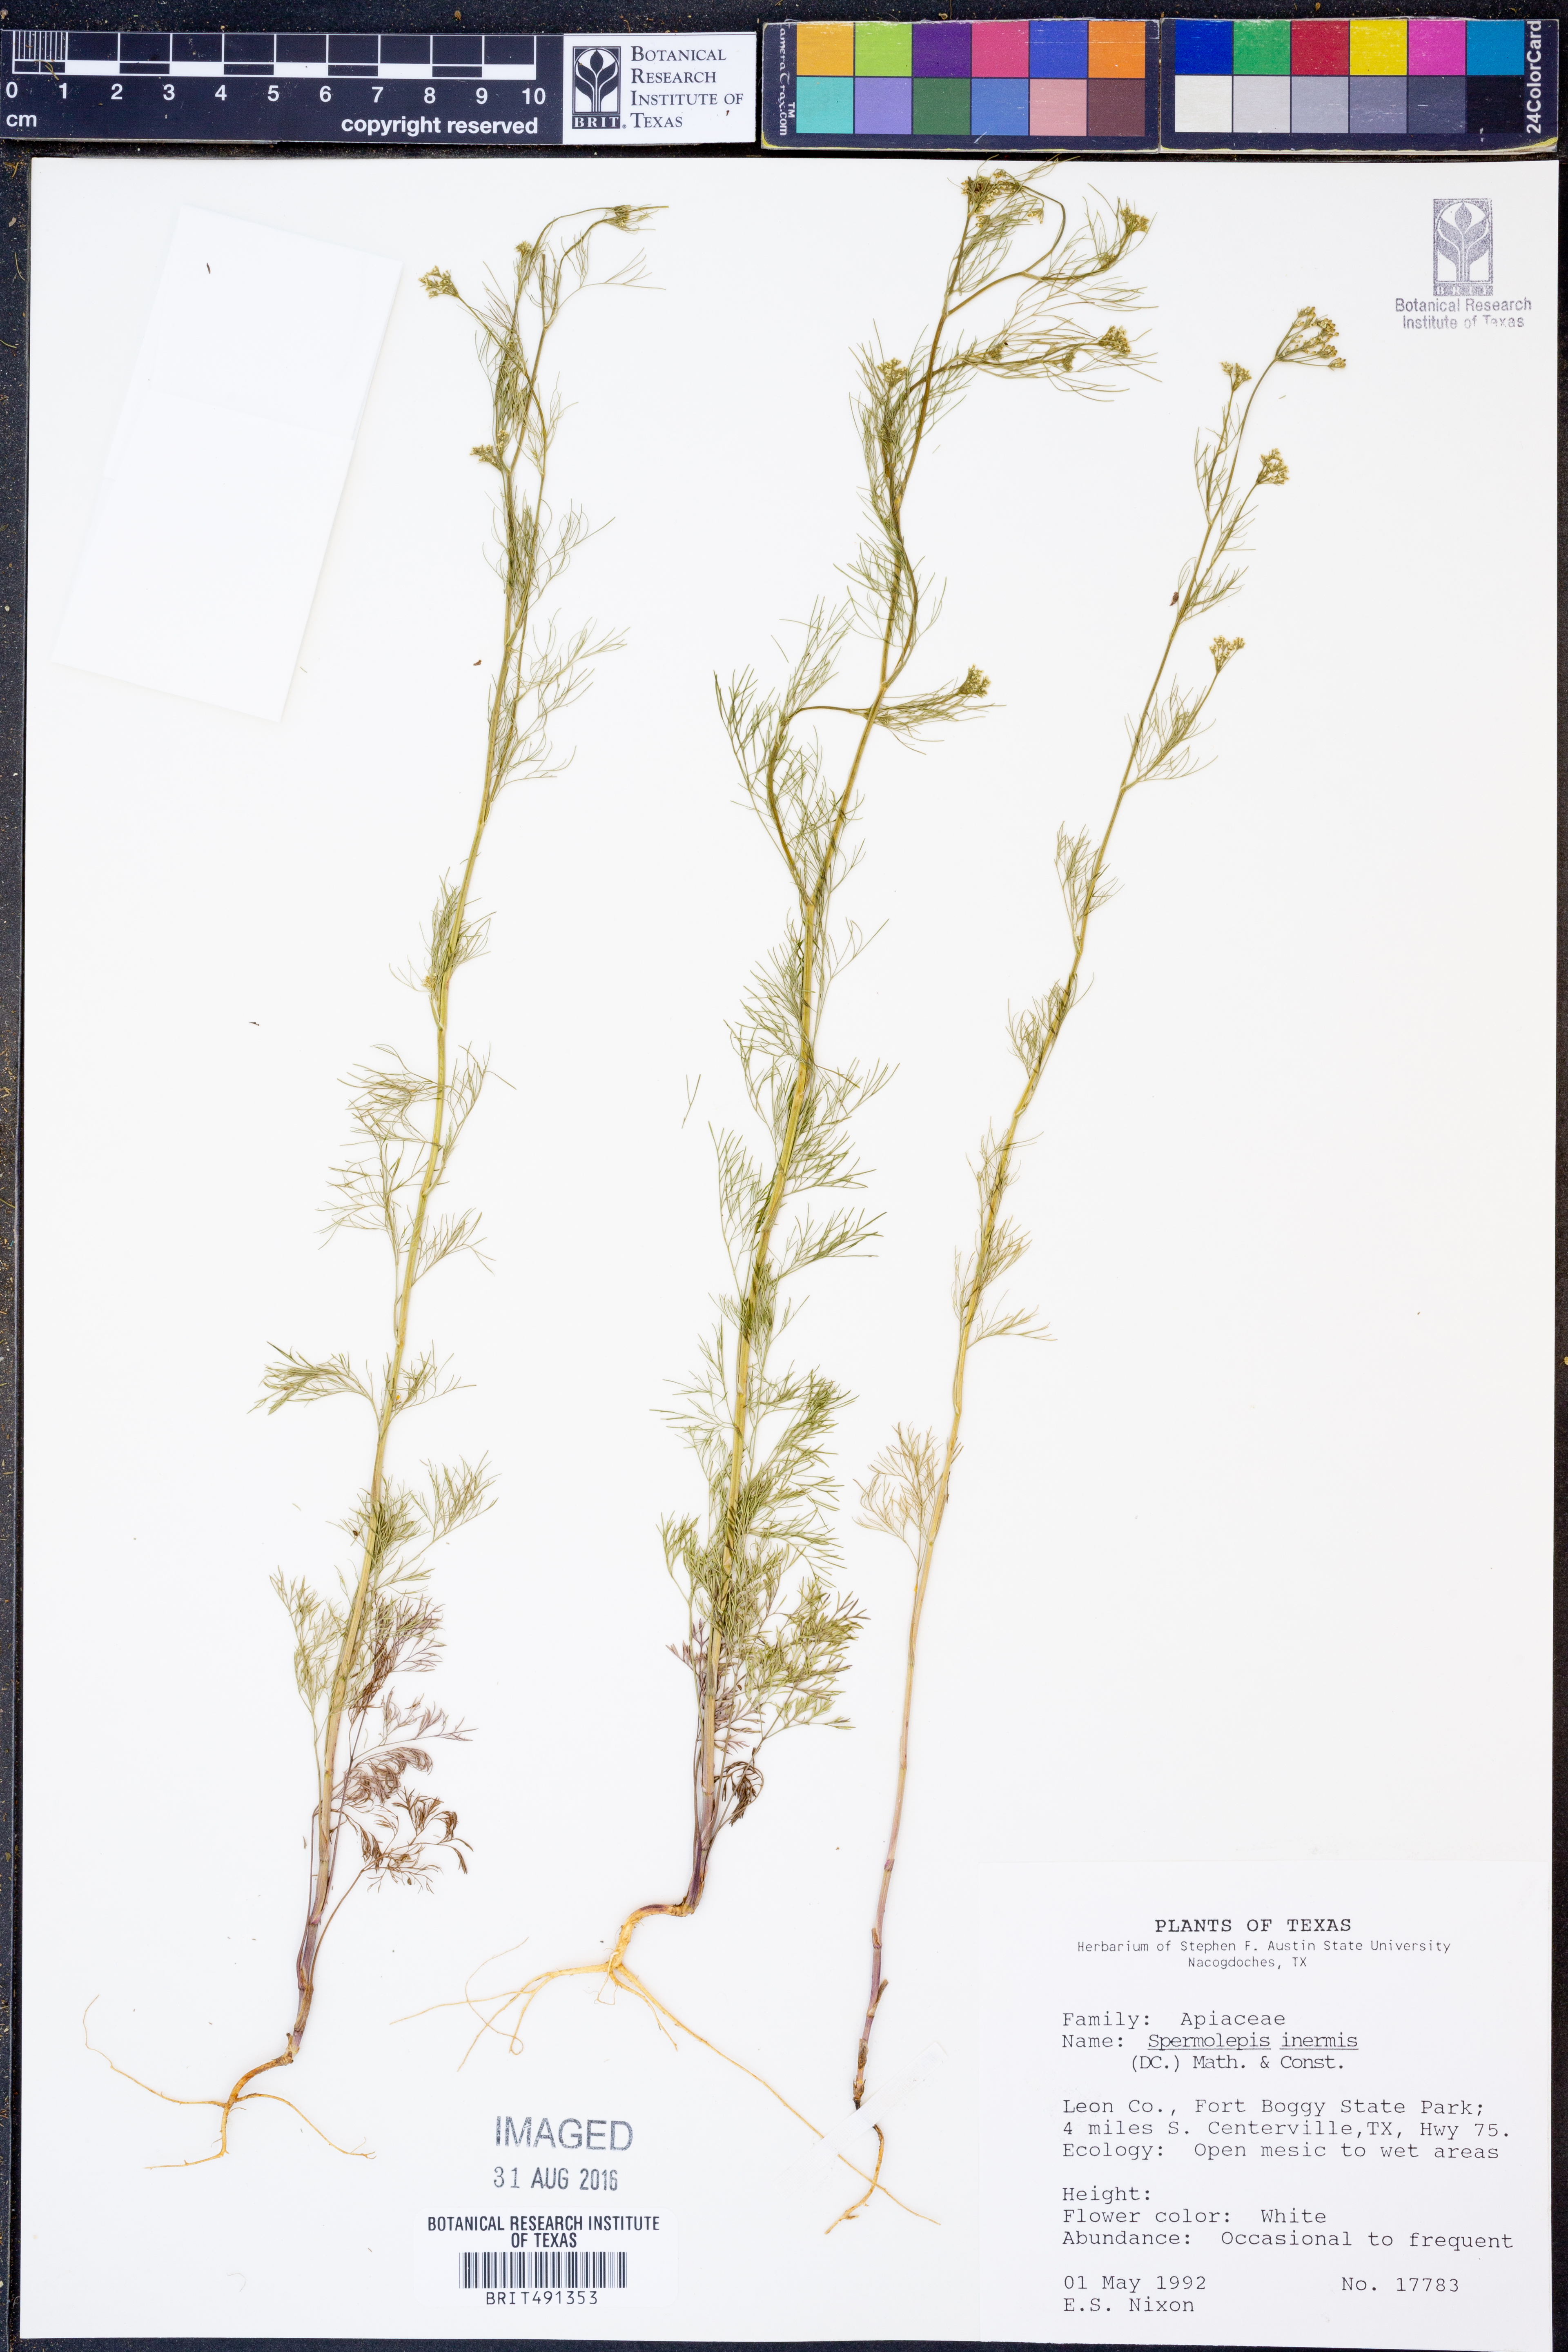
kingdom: Plantae
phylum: Tracheophyta
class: Magnoliopsida
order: Apiales
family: Apiaceae
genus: Spermolepis
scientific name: Spermolepis inermis
